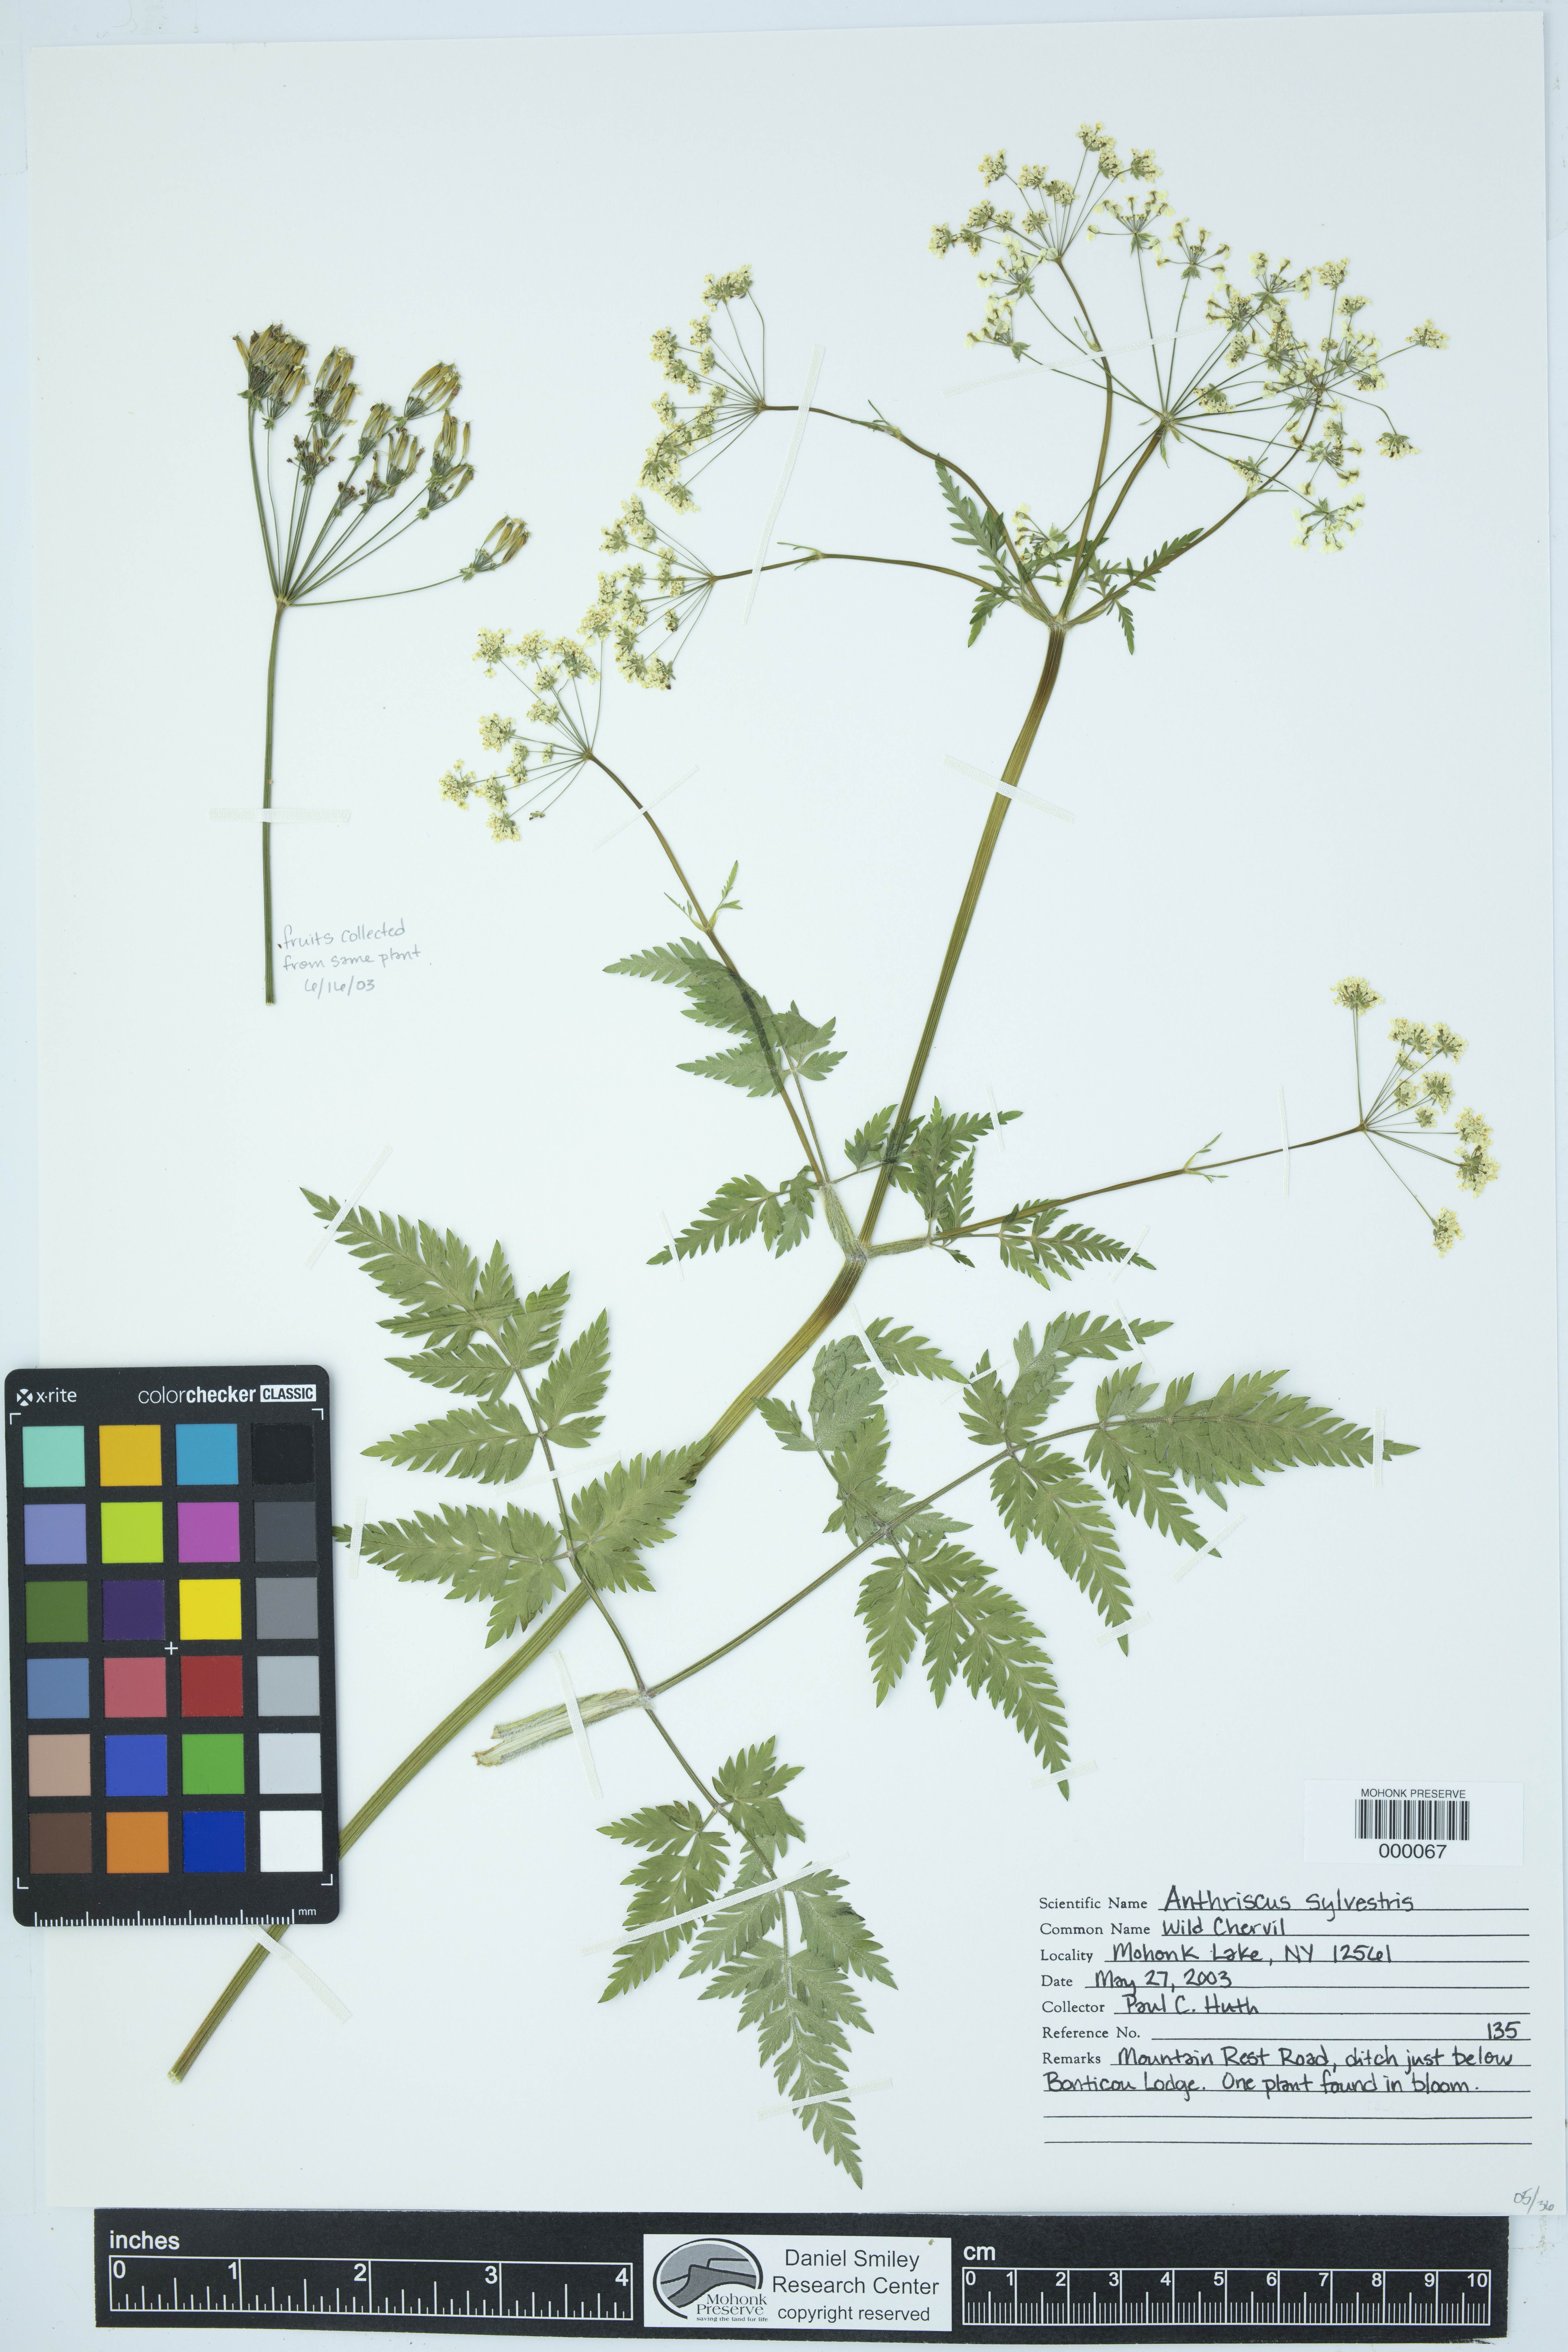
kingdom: Plantae
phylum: Tracheophyta
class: Magnoliopsida
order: Apiales
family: Apiaceae
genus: Anthriscus
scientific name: Anthriscus sylvestris
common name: Cow parsley
